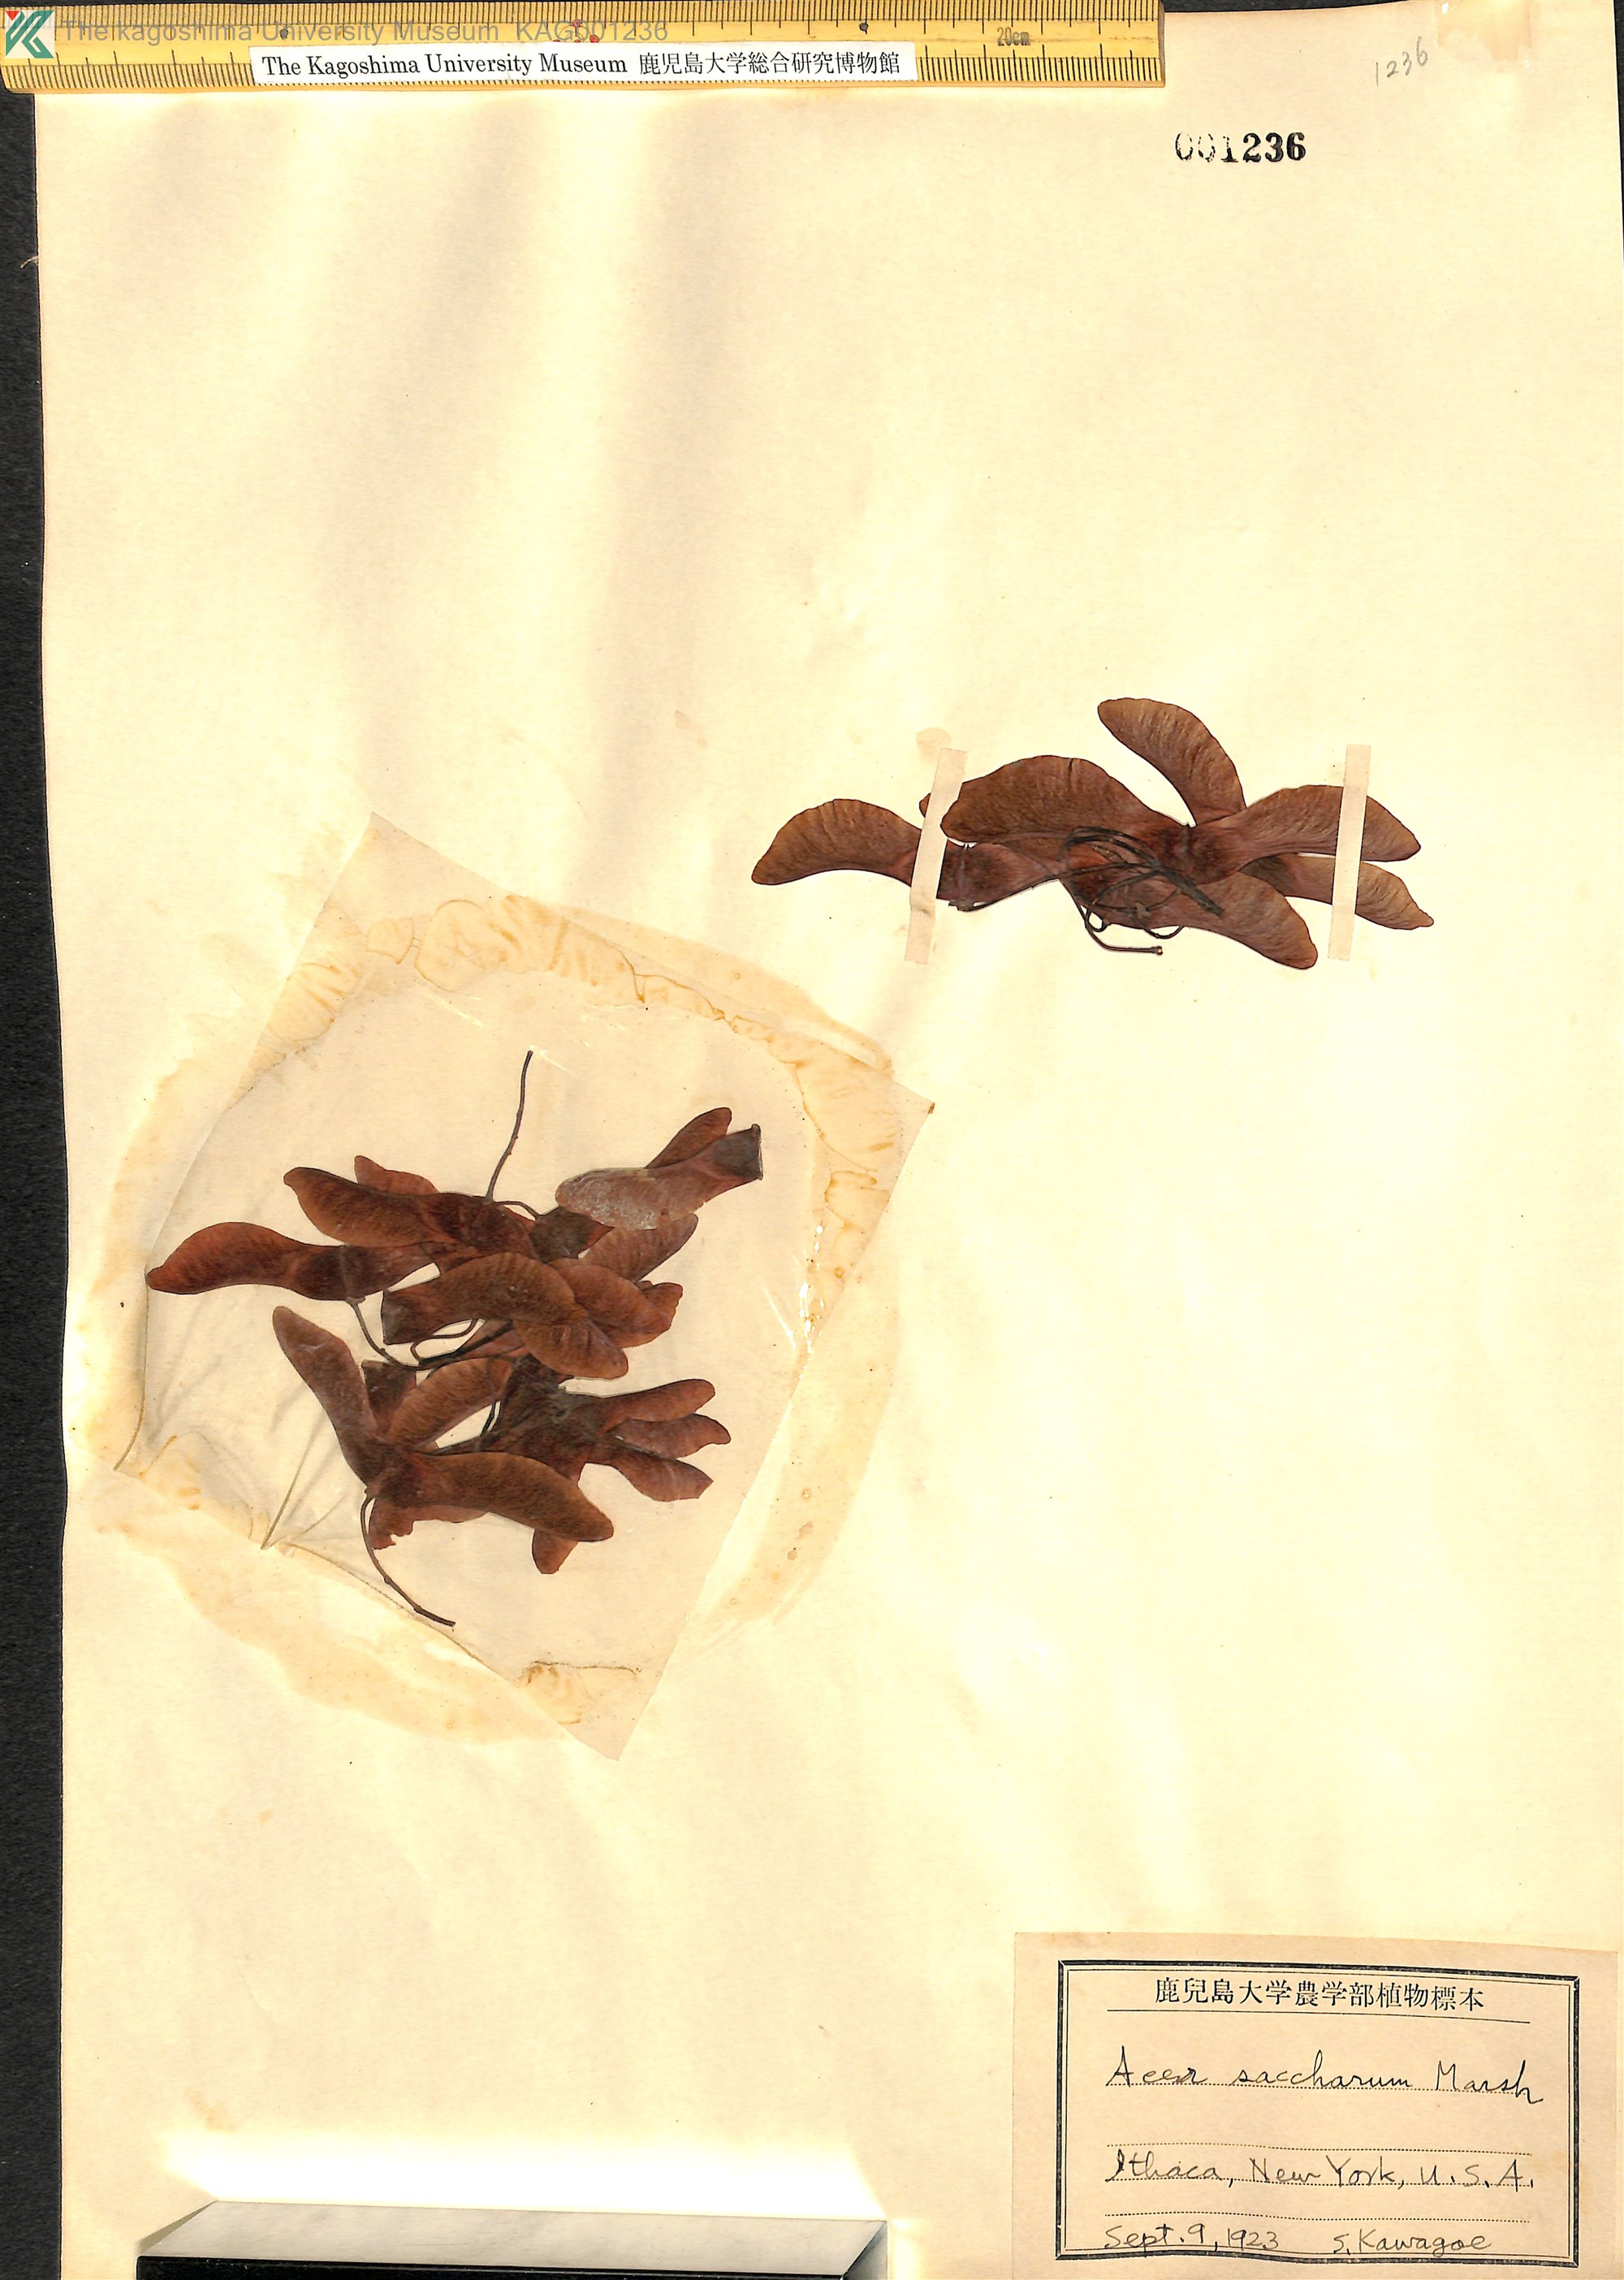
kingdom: Plantae
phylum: Tracheophyta
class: Magnoliopsida
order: Sapindales
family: Sapindaceae
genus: Acer
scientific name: Acer saccharum
